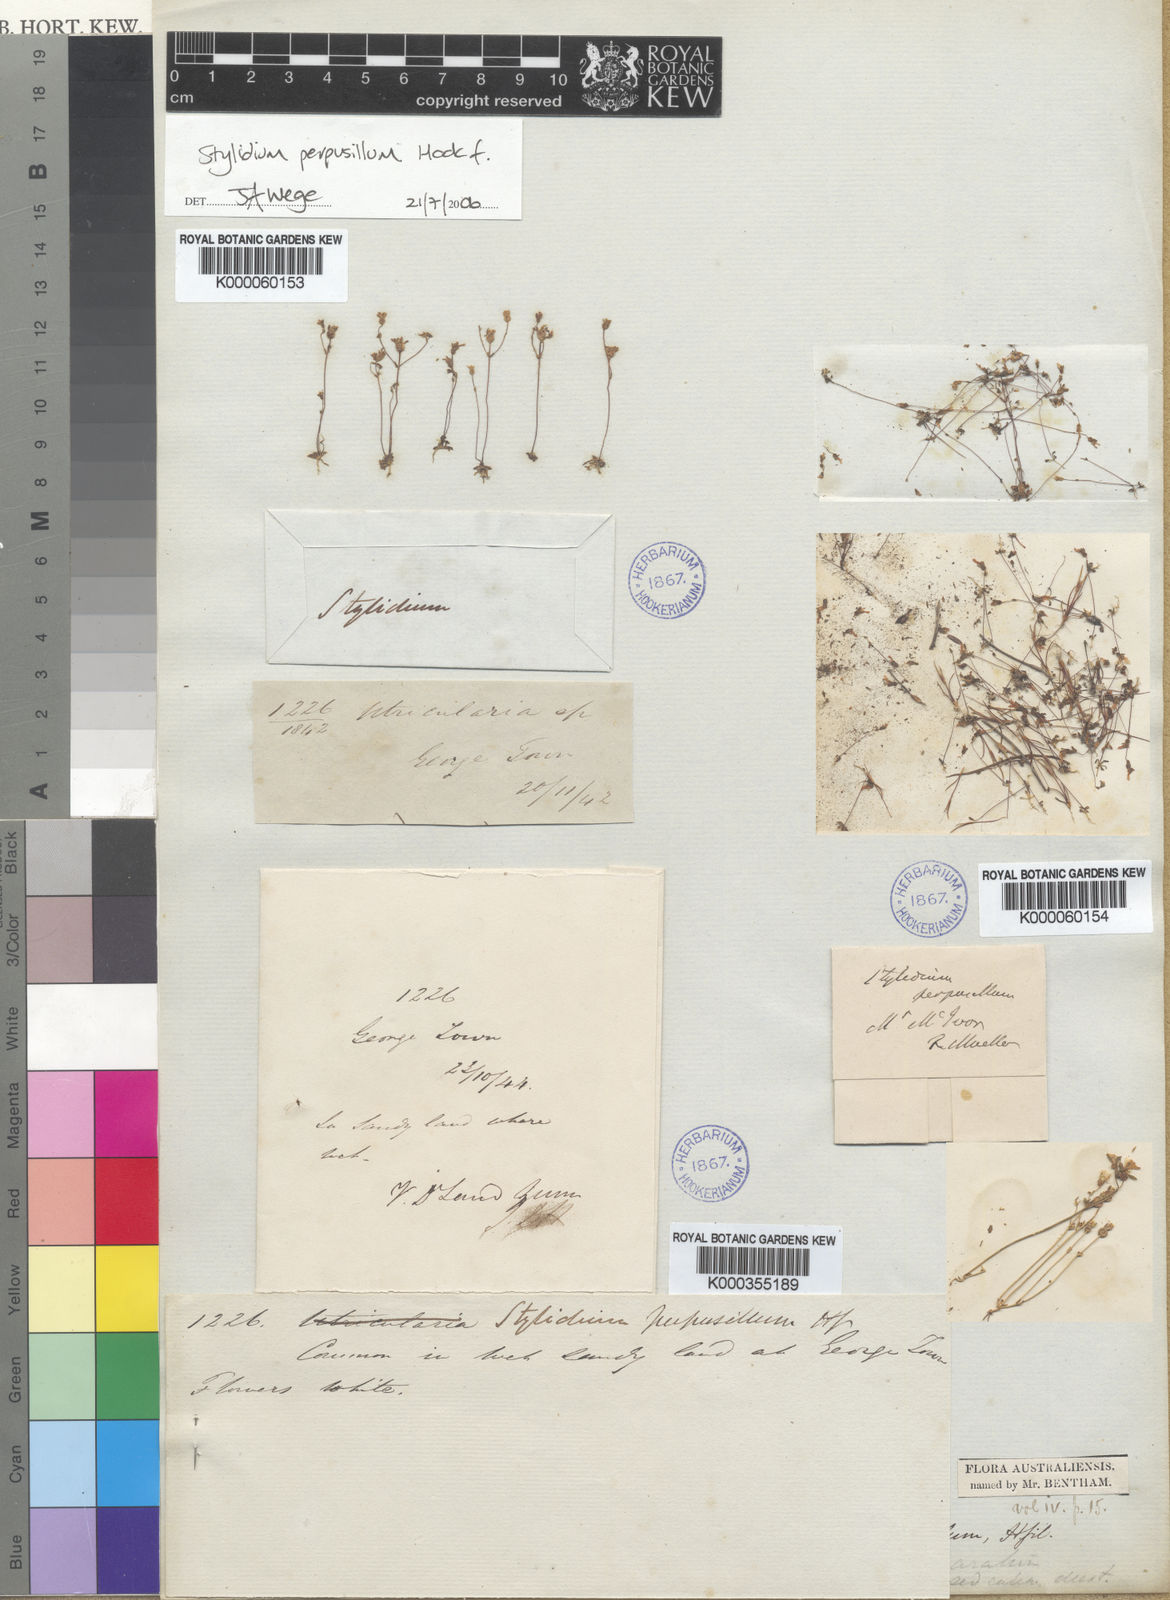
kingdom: Plantae
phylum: Tracheophyta
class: Magnoliopsida
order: Asterales
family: Stylidiaceae
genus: Stylidium
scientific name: Stylidium perpusillum
